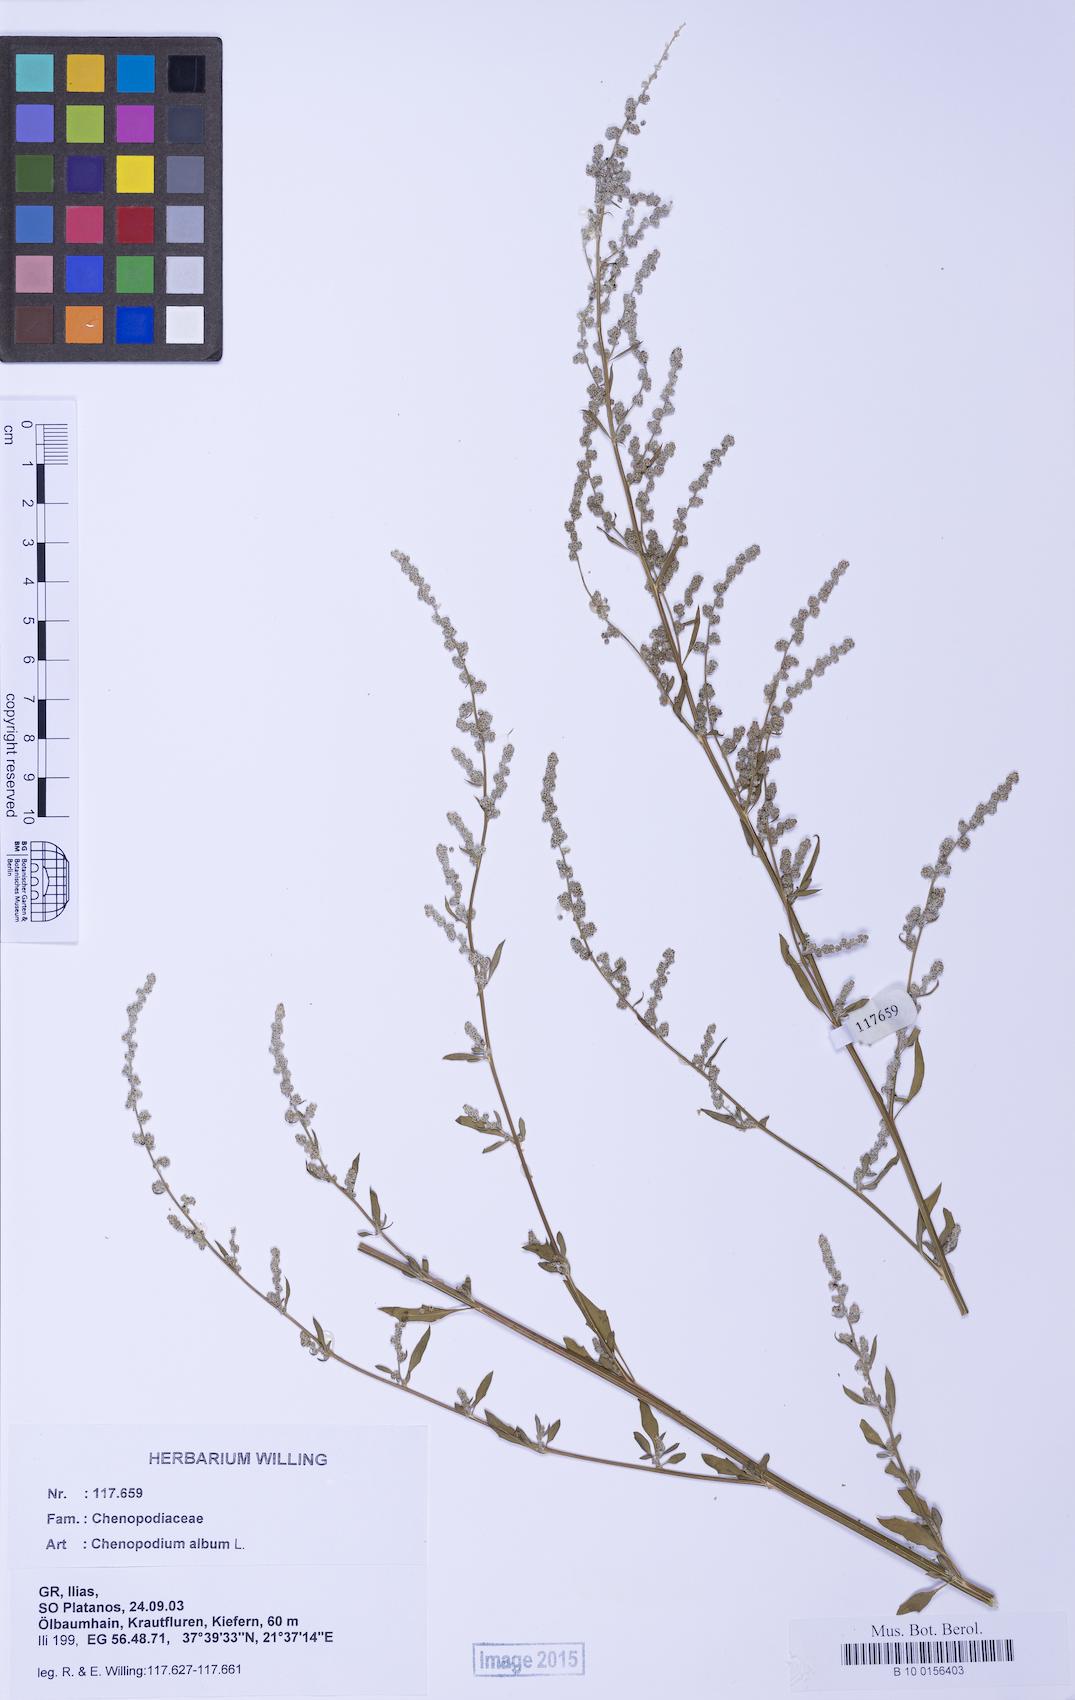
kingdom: Plantae
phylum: Tracheophyta
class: Magnoliopsida
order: Caryophyllales
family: Amaranthaceae
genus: Chenopodium
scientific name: Chenopodium album
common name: Fat-hen
